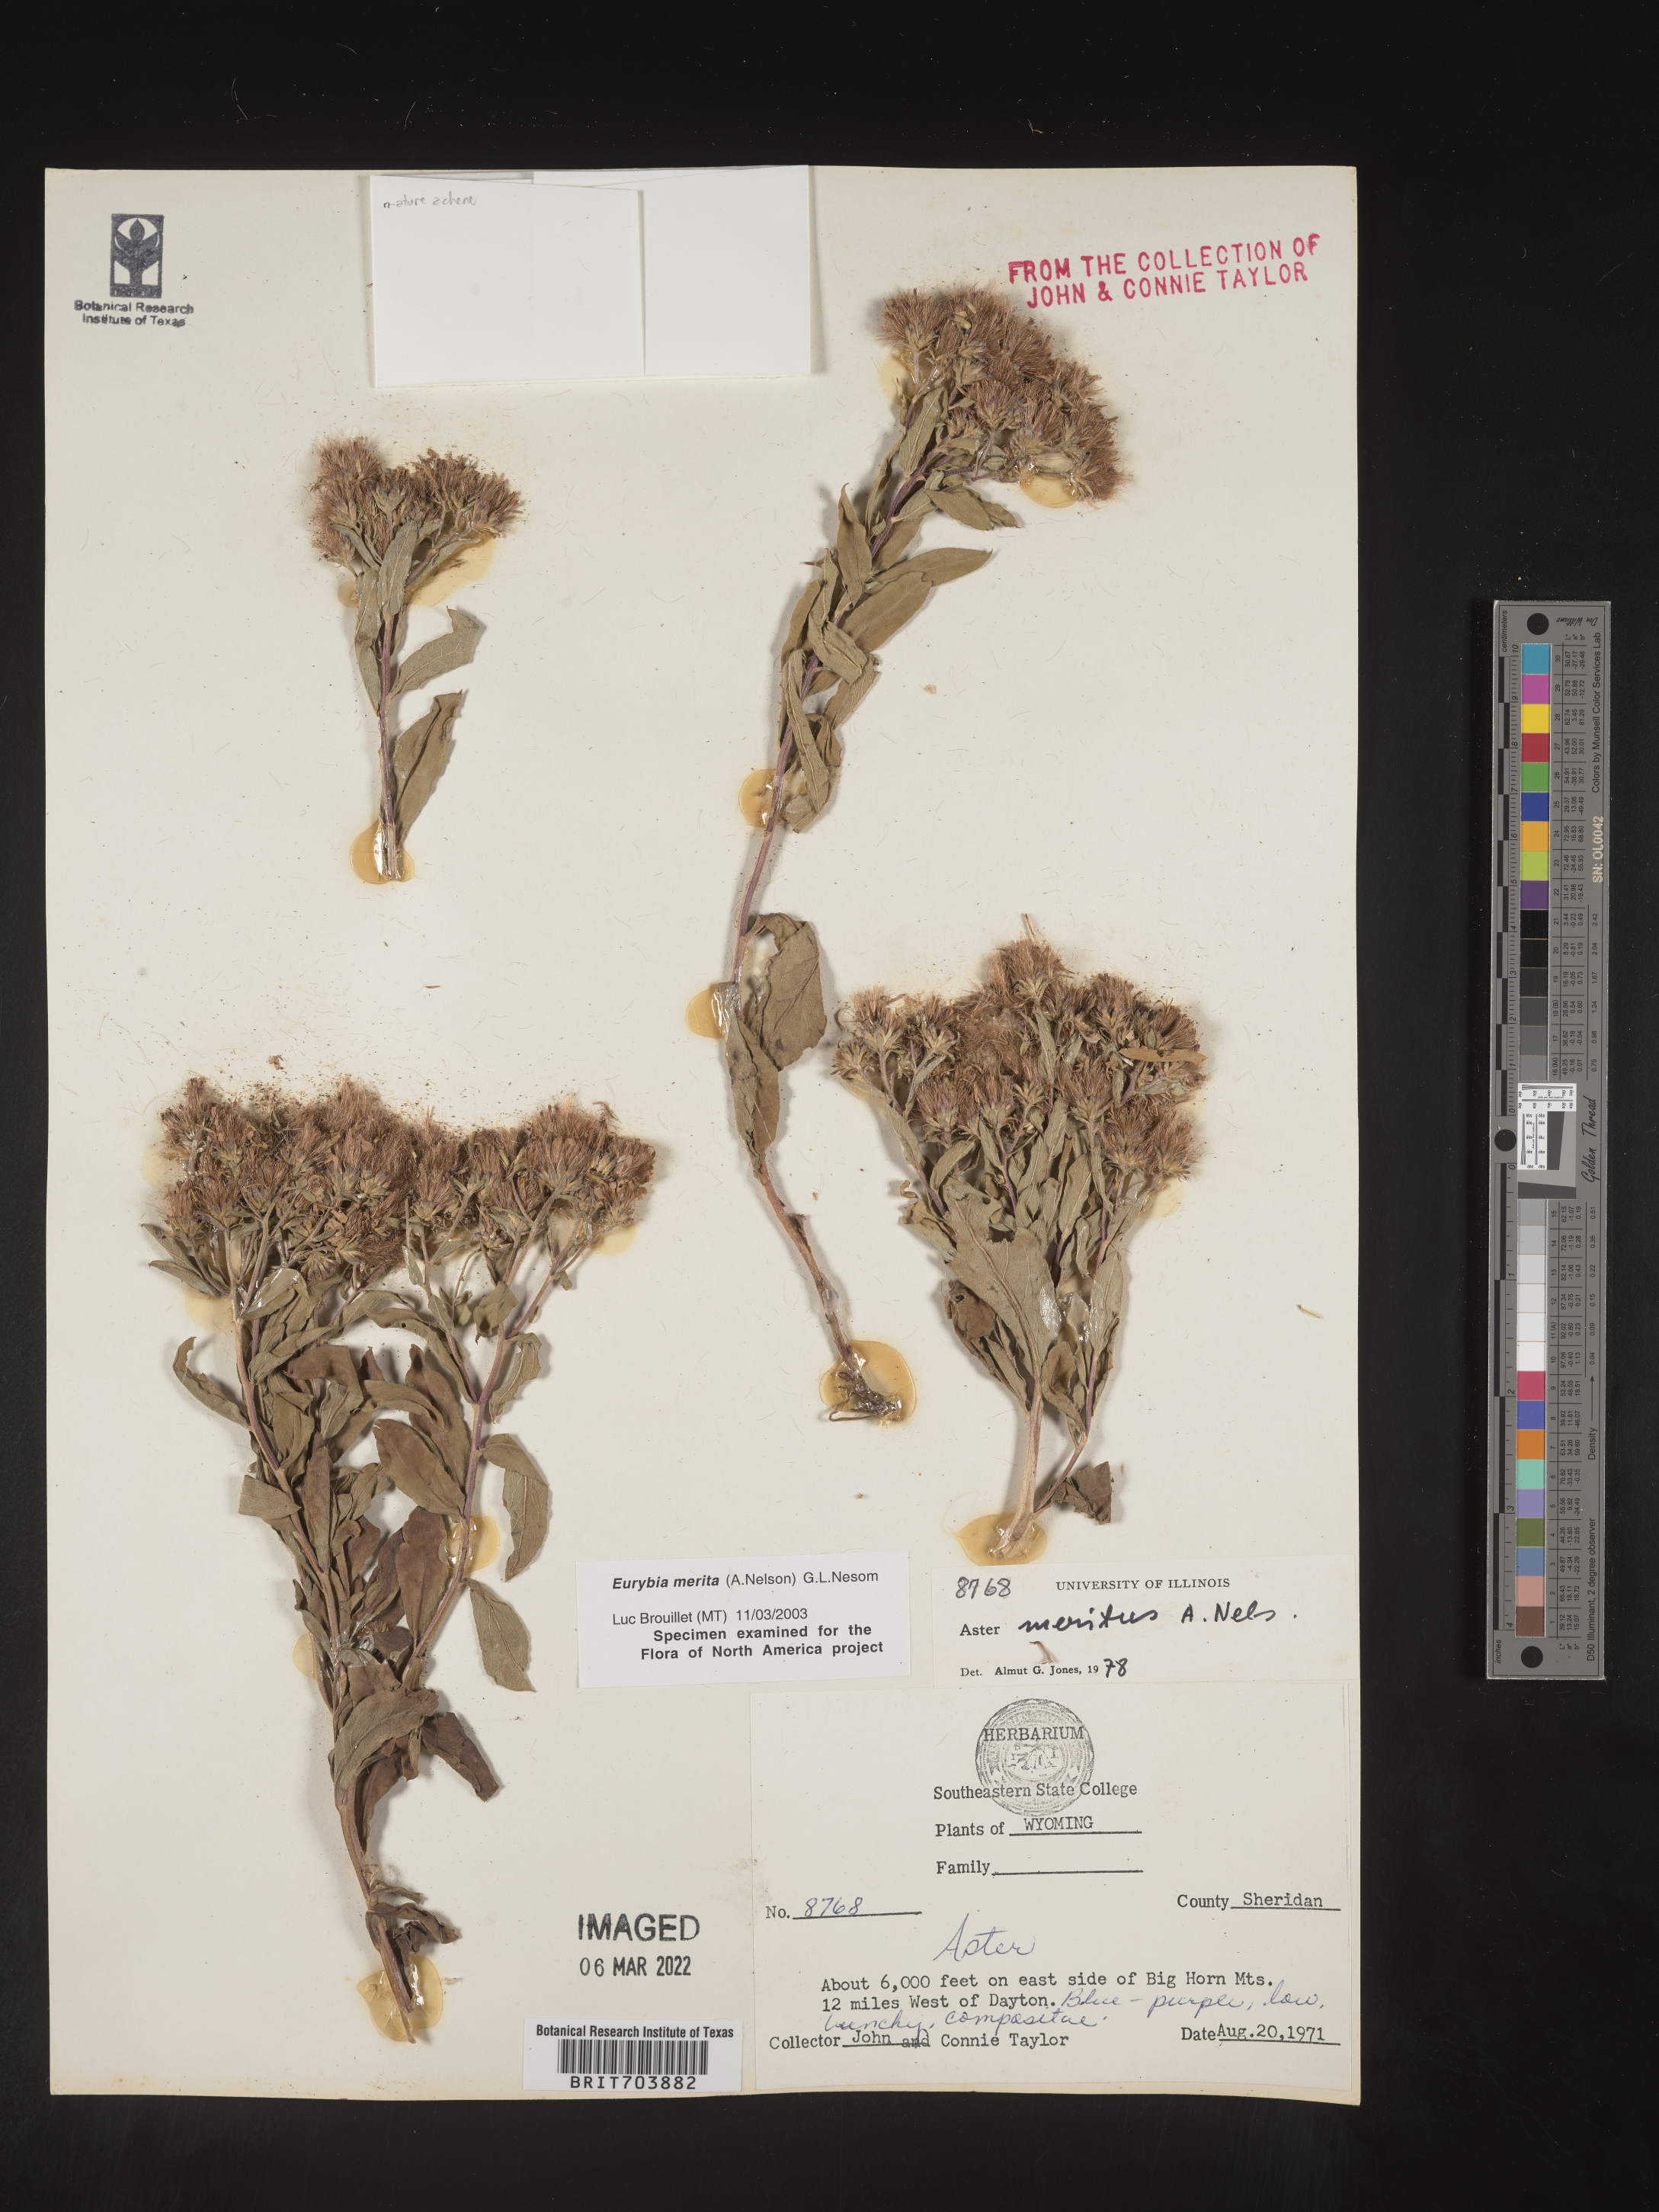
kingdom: Plantae
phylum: Tracheophyta
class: Magnoliopsida
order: Asterales
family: Asteraceae
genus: Eurybia
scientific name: Eurybia merita
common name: Arctic aster
